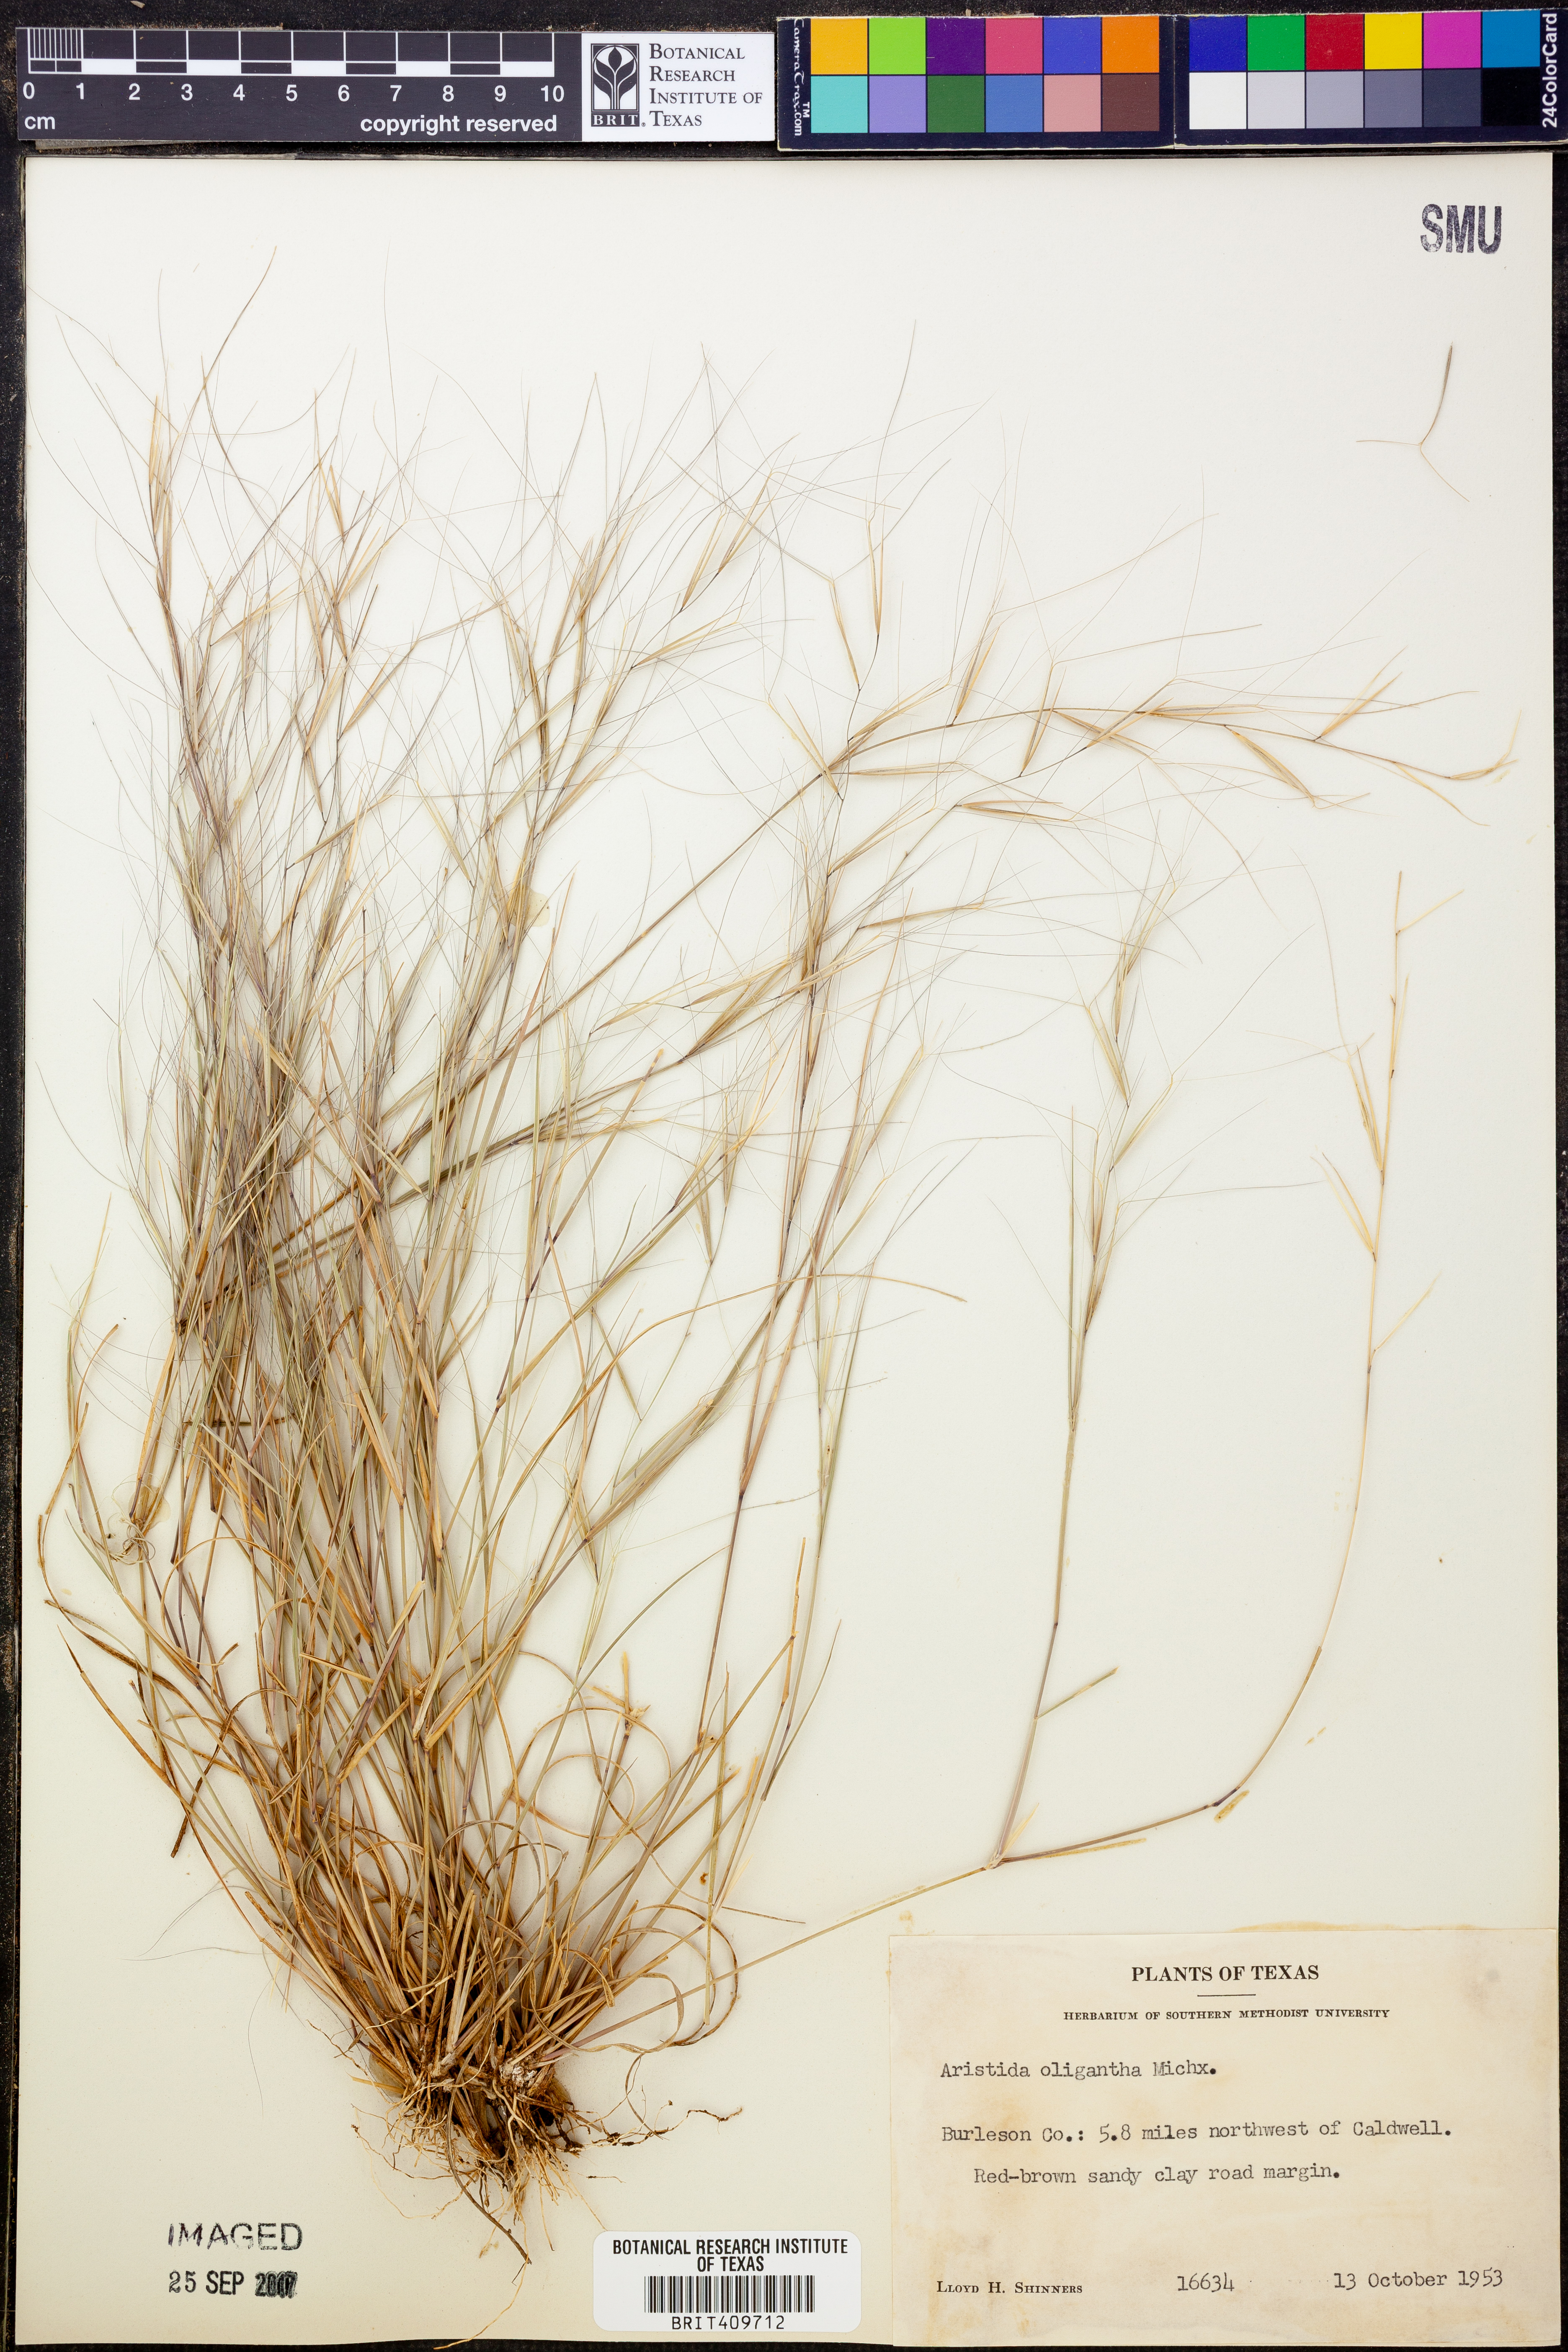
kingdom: Plantae
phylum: Tracheophyta
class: Liliopsida
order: Poales
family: Poaceae
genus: Aristida
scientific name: Aristida oligantha
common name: Few-flowered aristida
